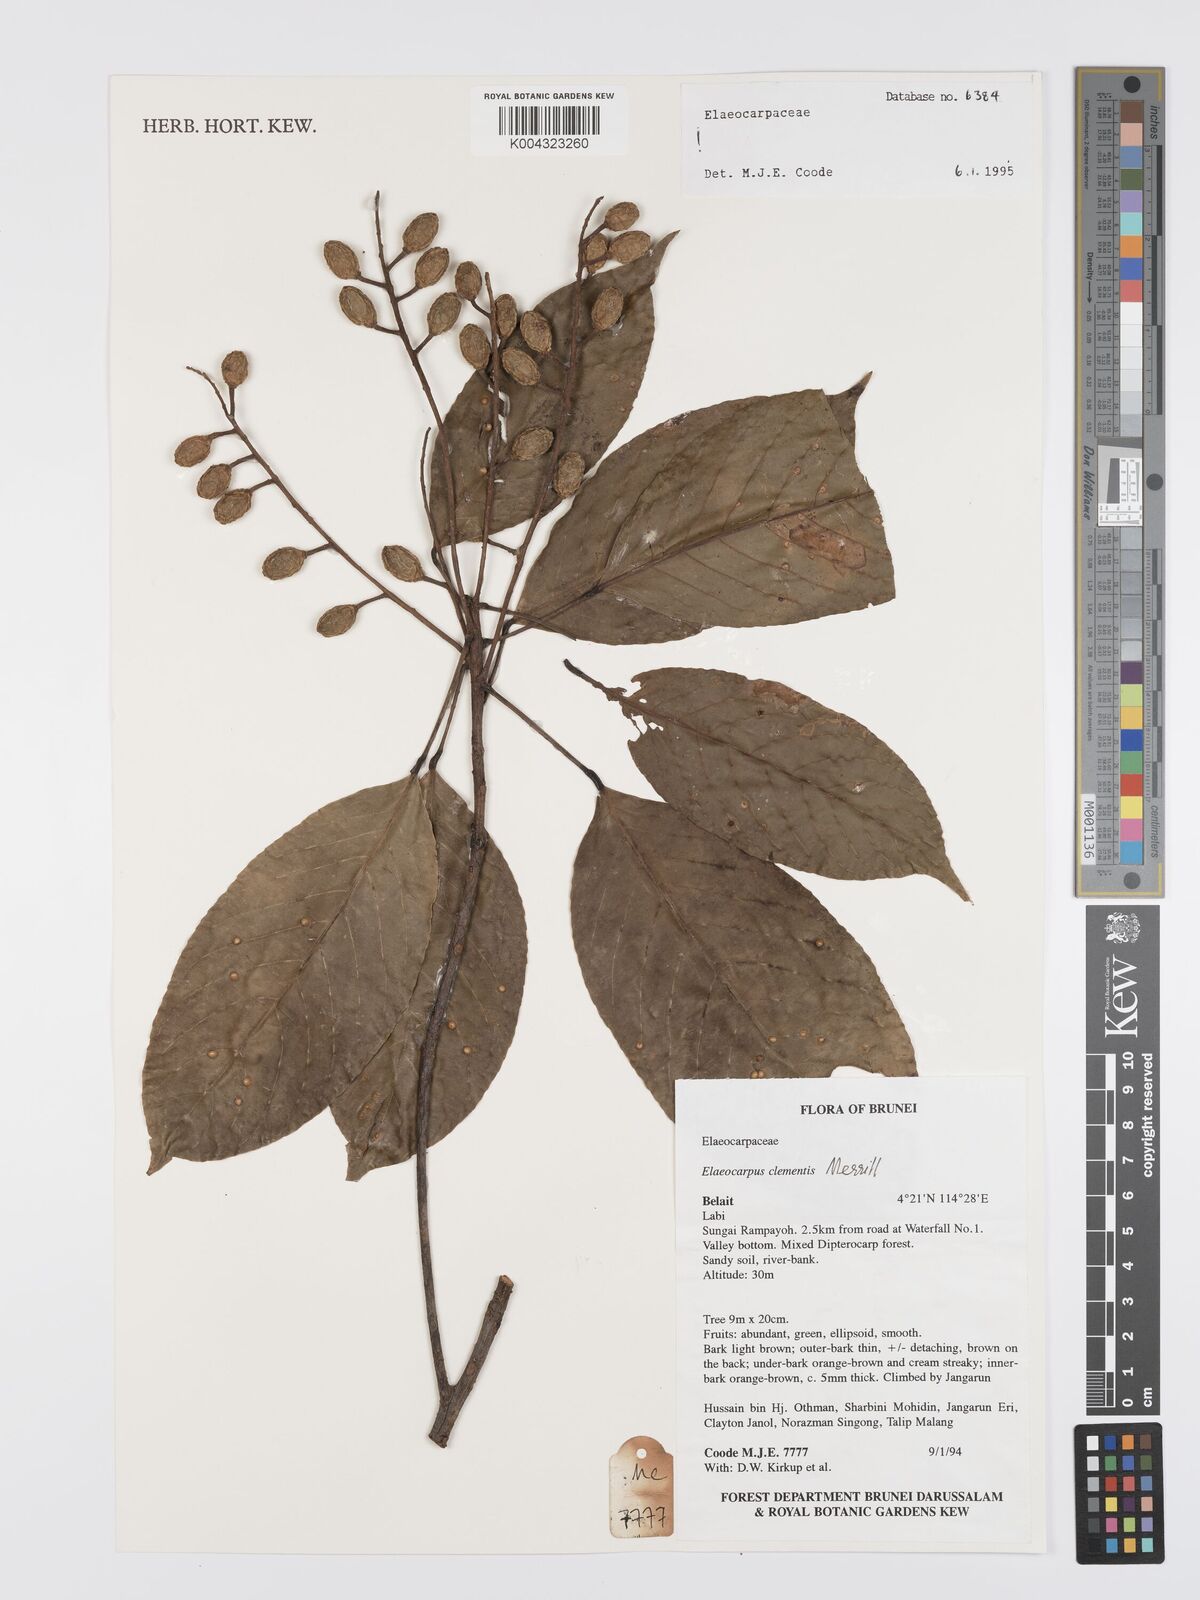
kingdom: Plantae
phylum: Tracheophyta
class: Magnoliopsida
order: Oxalidales
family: Elaeocarpaceae
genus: Elaeocarpus
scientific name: Elaeocarpus clementis
